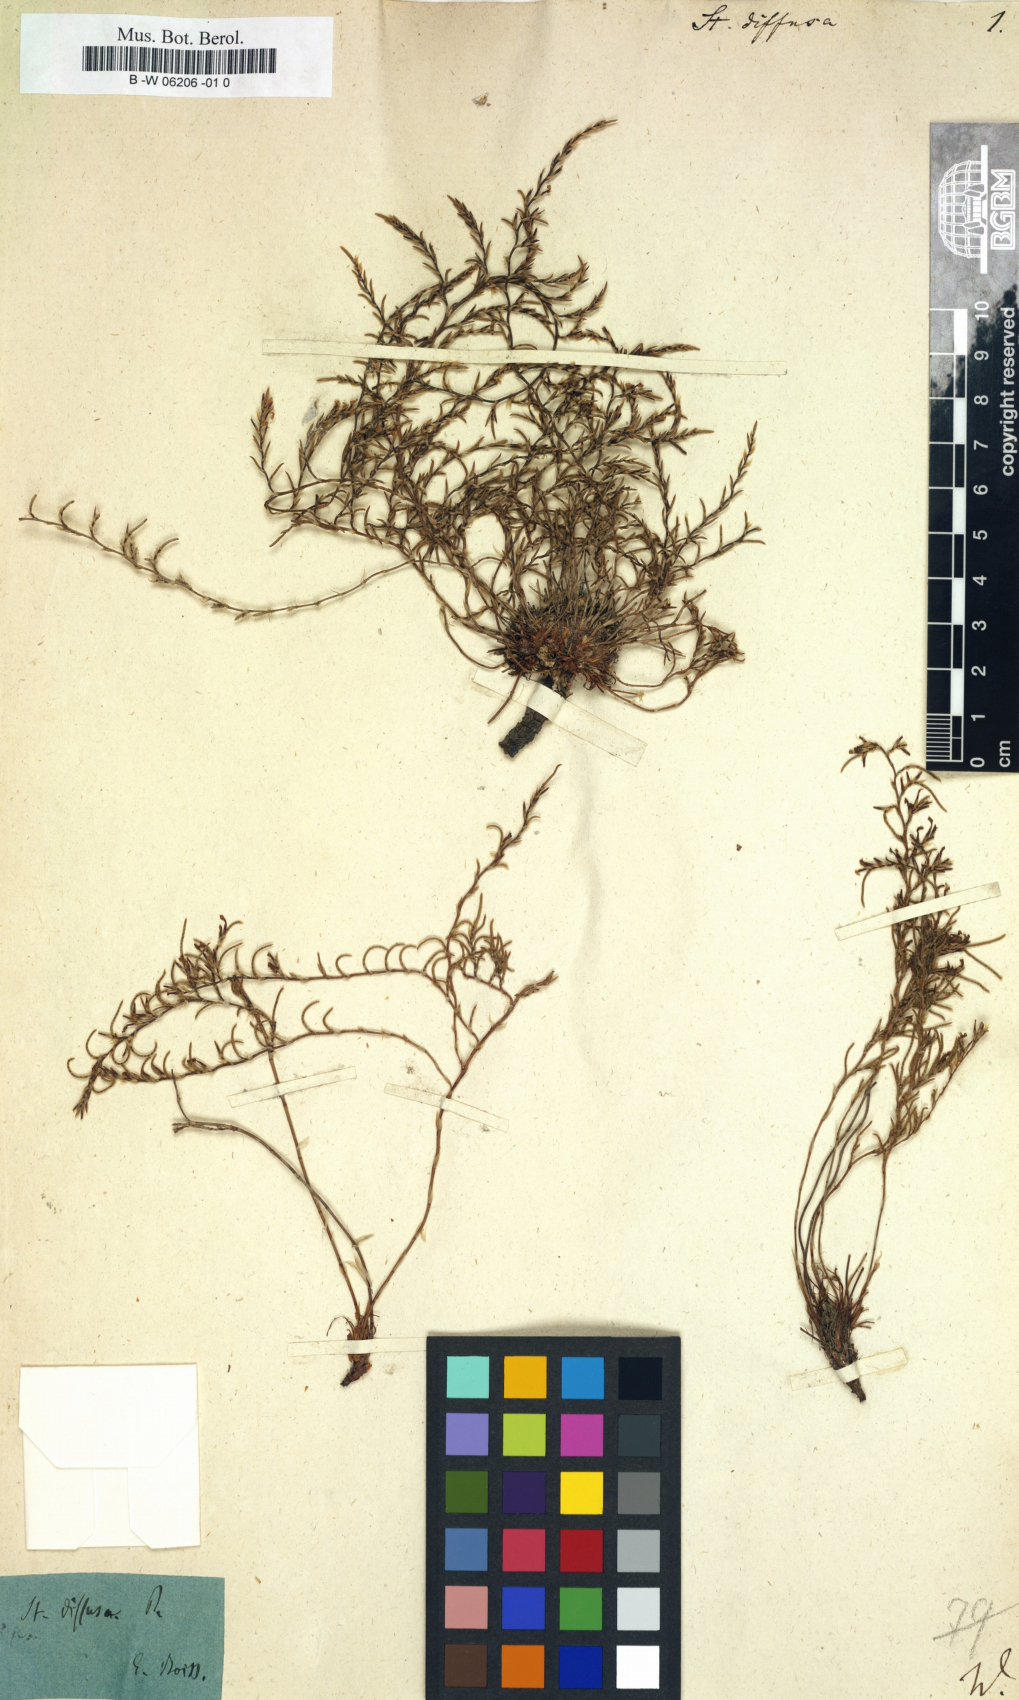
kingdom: Plantae
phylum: Tracheophyta
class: Magnoliopsida
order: Caryophyllales
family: Plumbaginaceae
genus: Myriolimon
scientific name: Myriolimon diffusum
